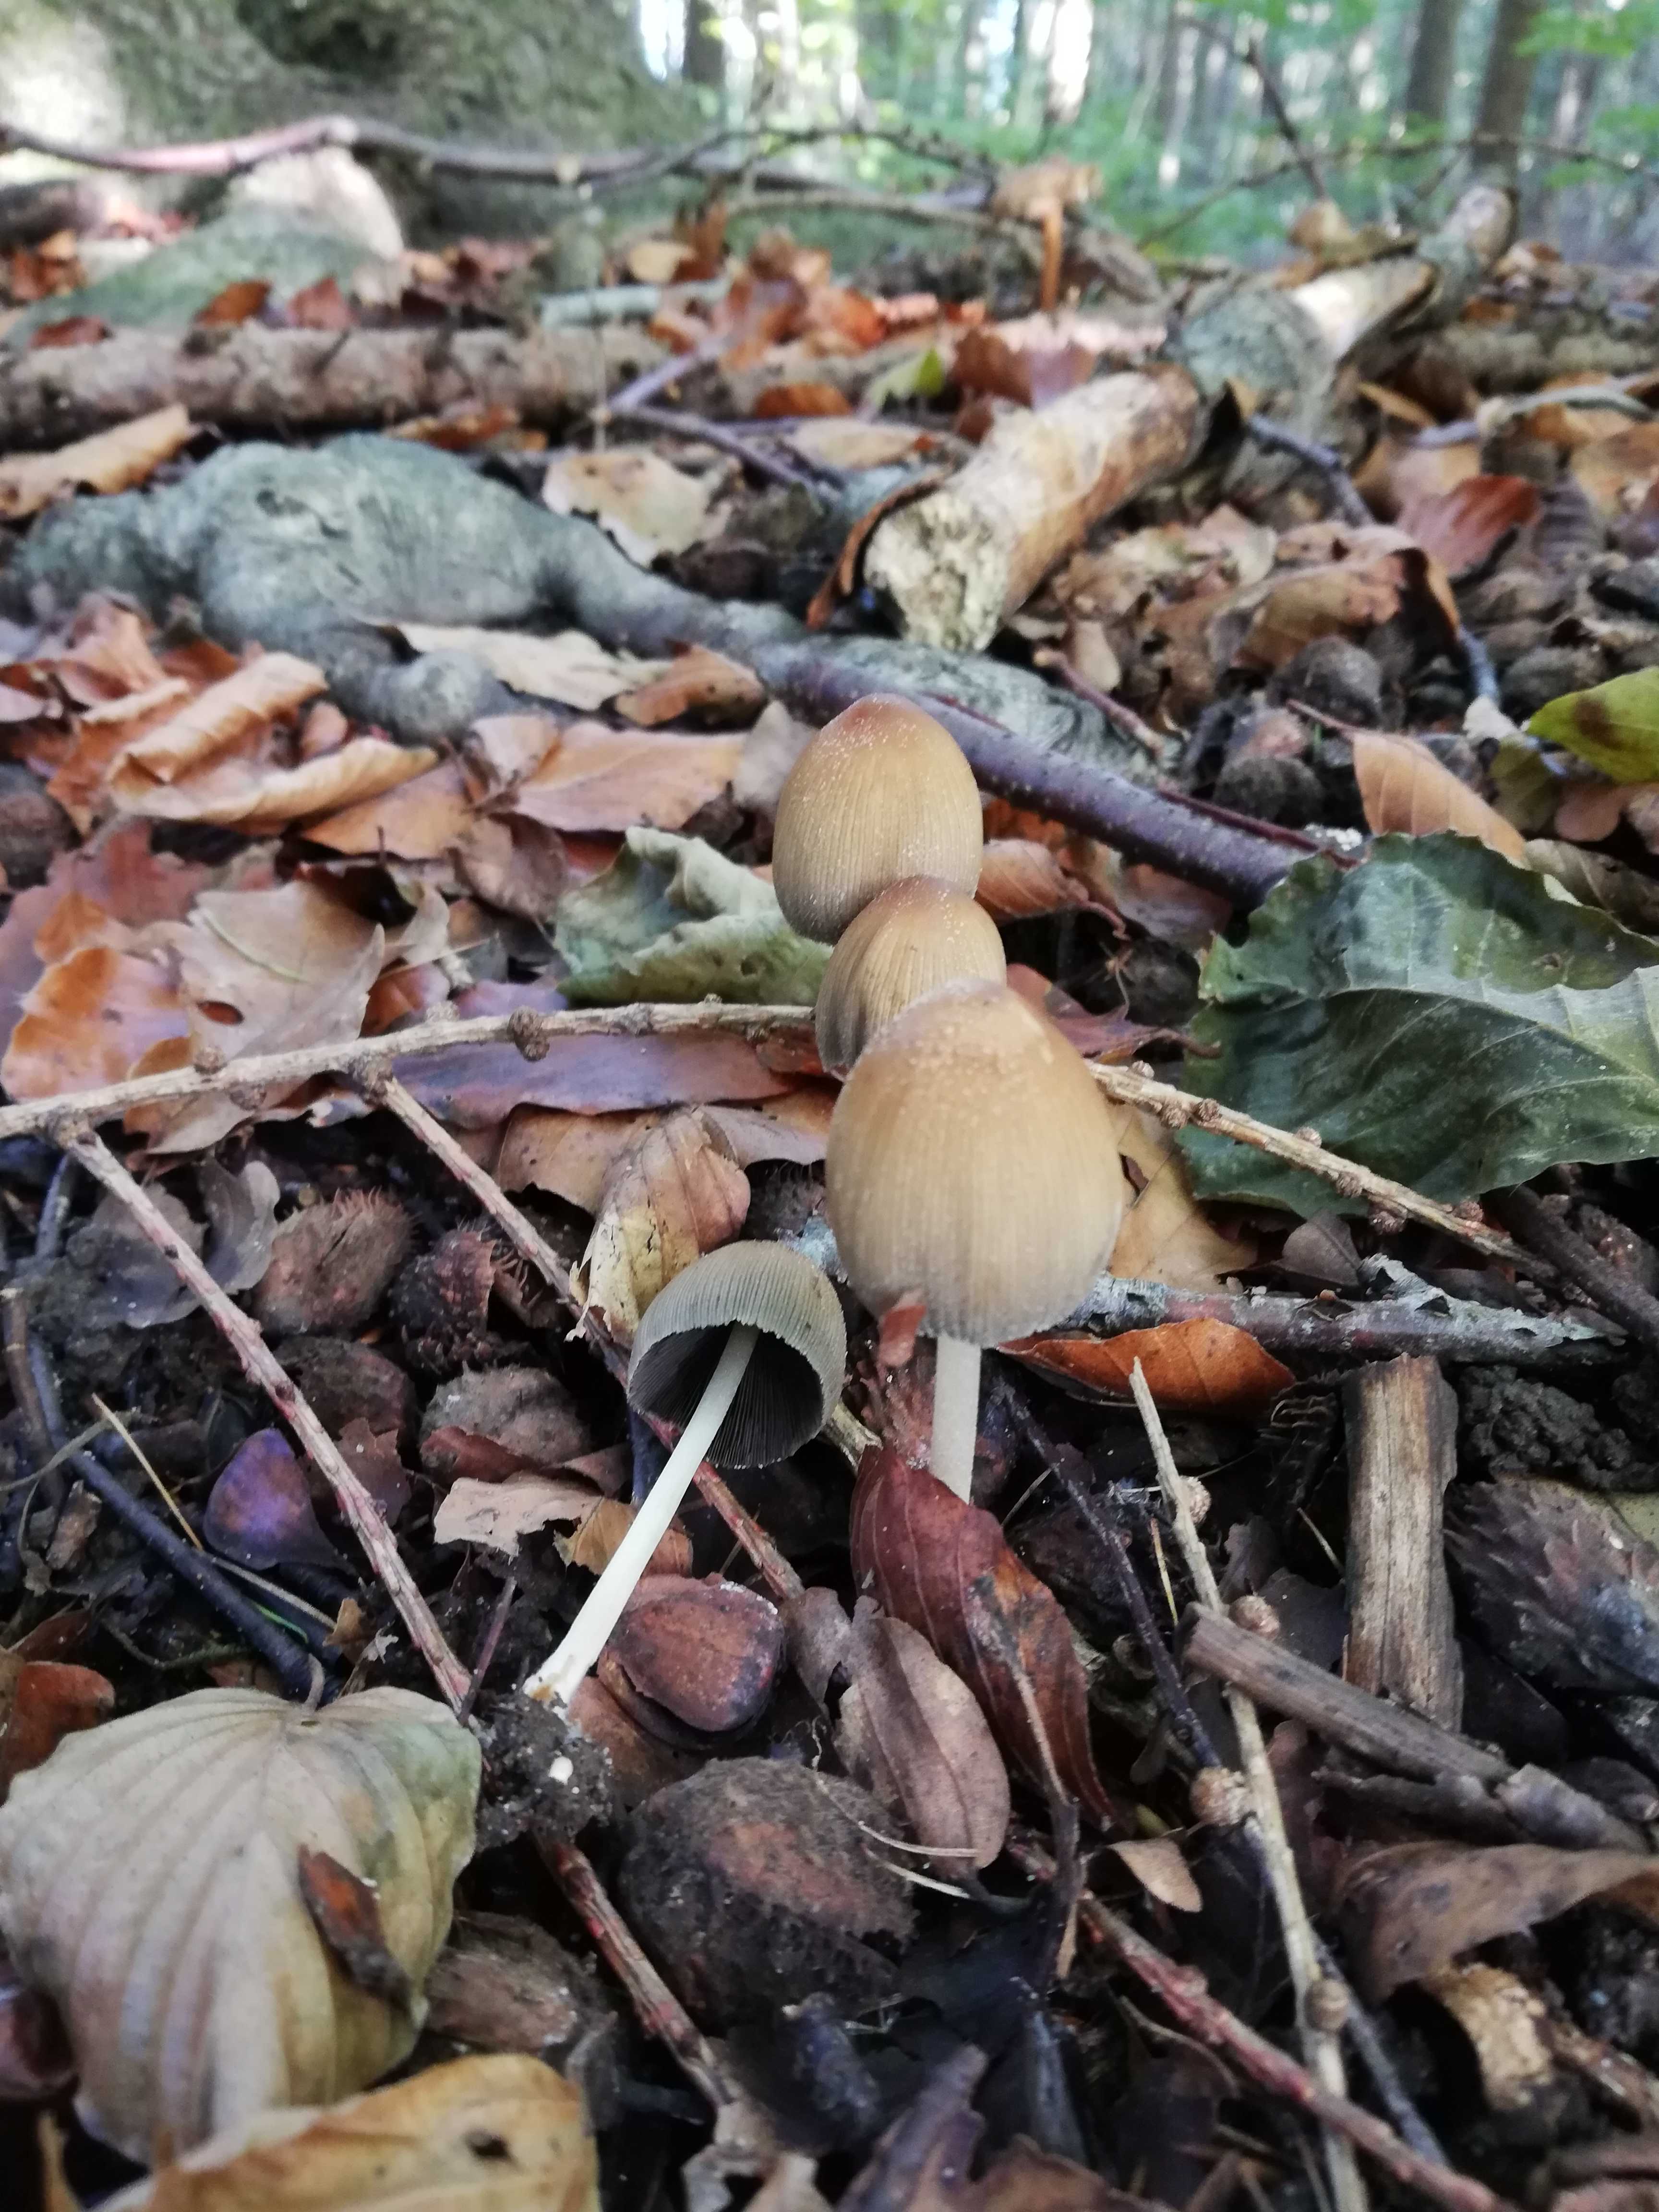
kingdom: Fungi
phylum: Basidiomycota
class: Agaricomycetes
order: Agaricales
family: Psathyrellaceae
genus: Coprinellus
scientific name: Coprinellus micaceus
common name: glimmer-blækhat
